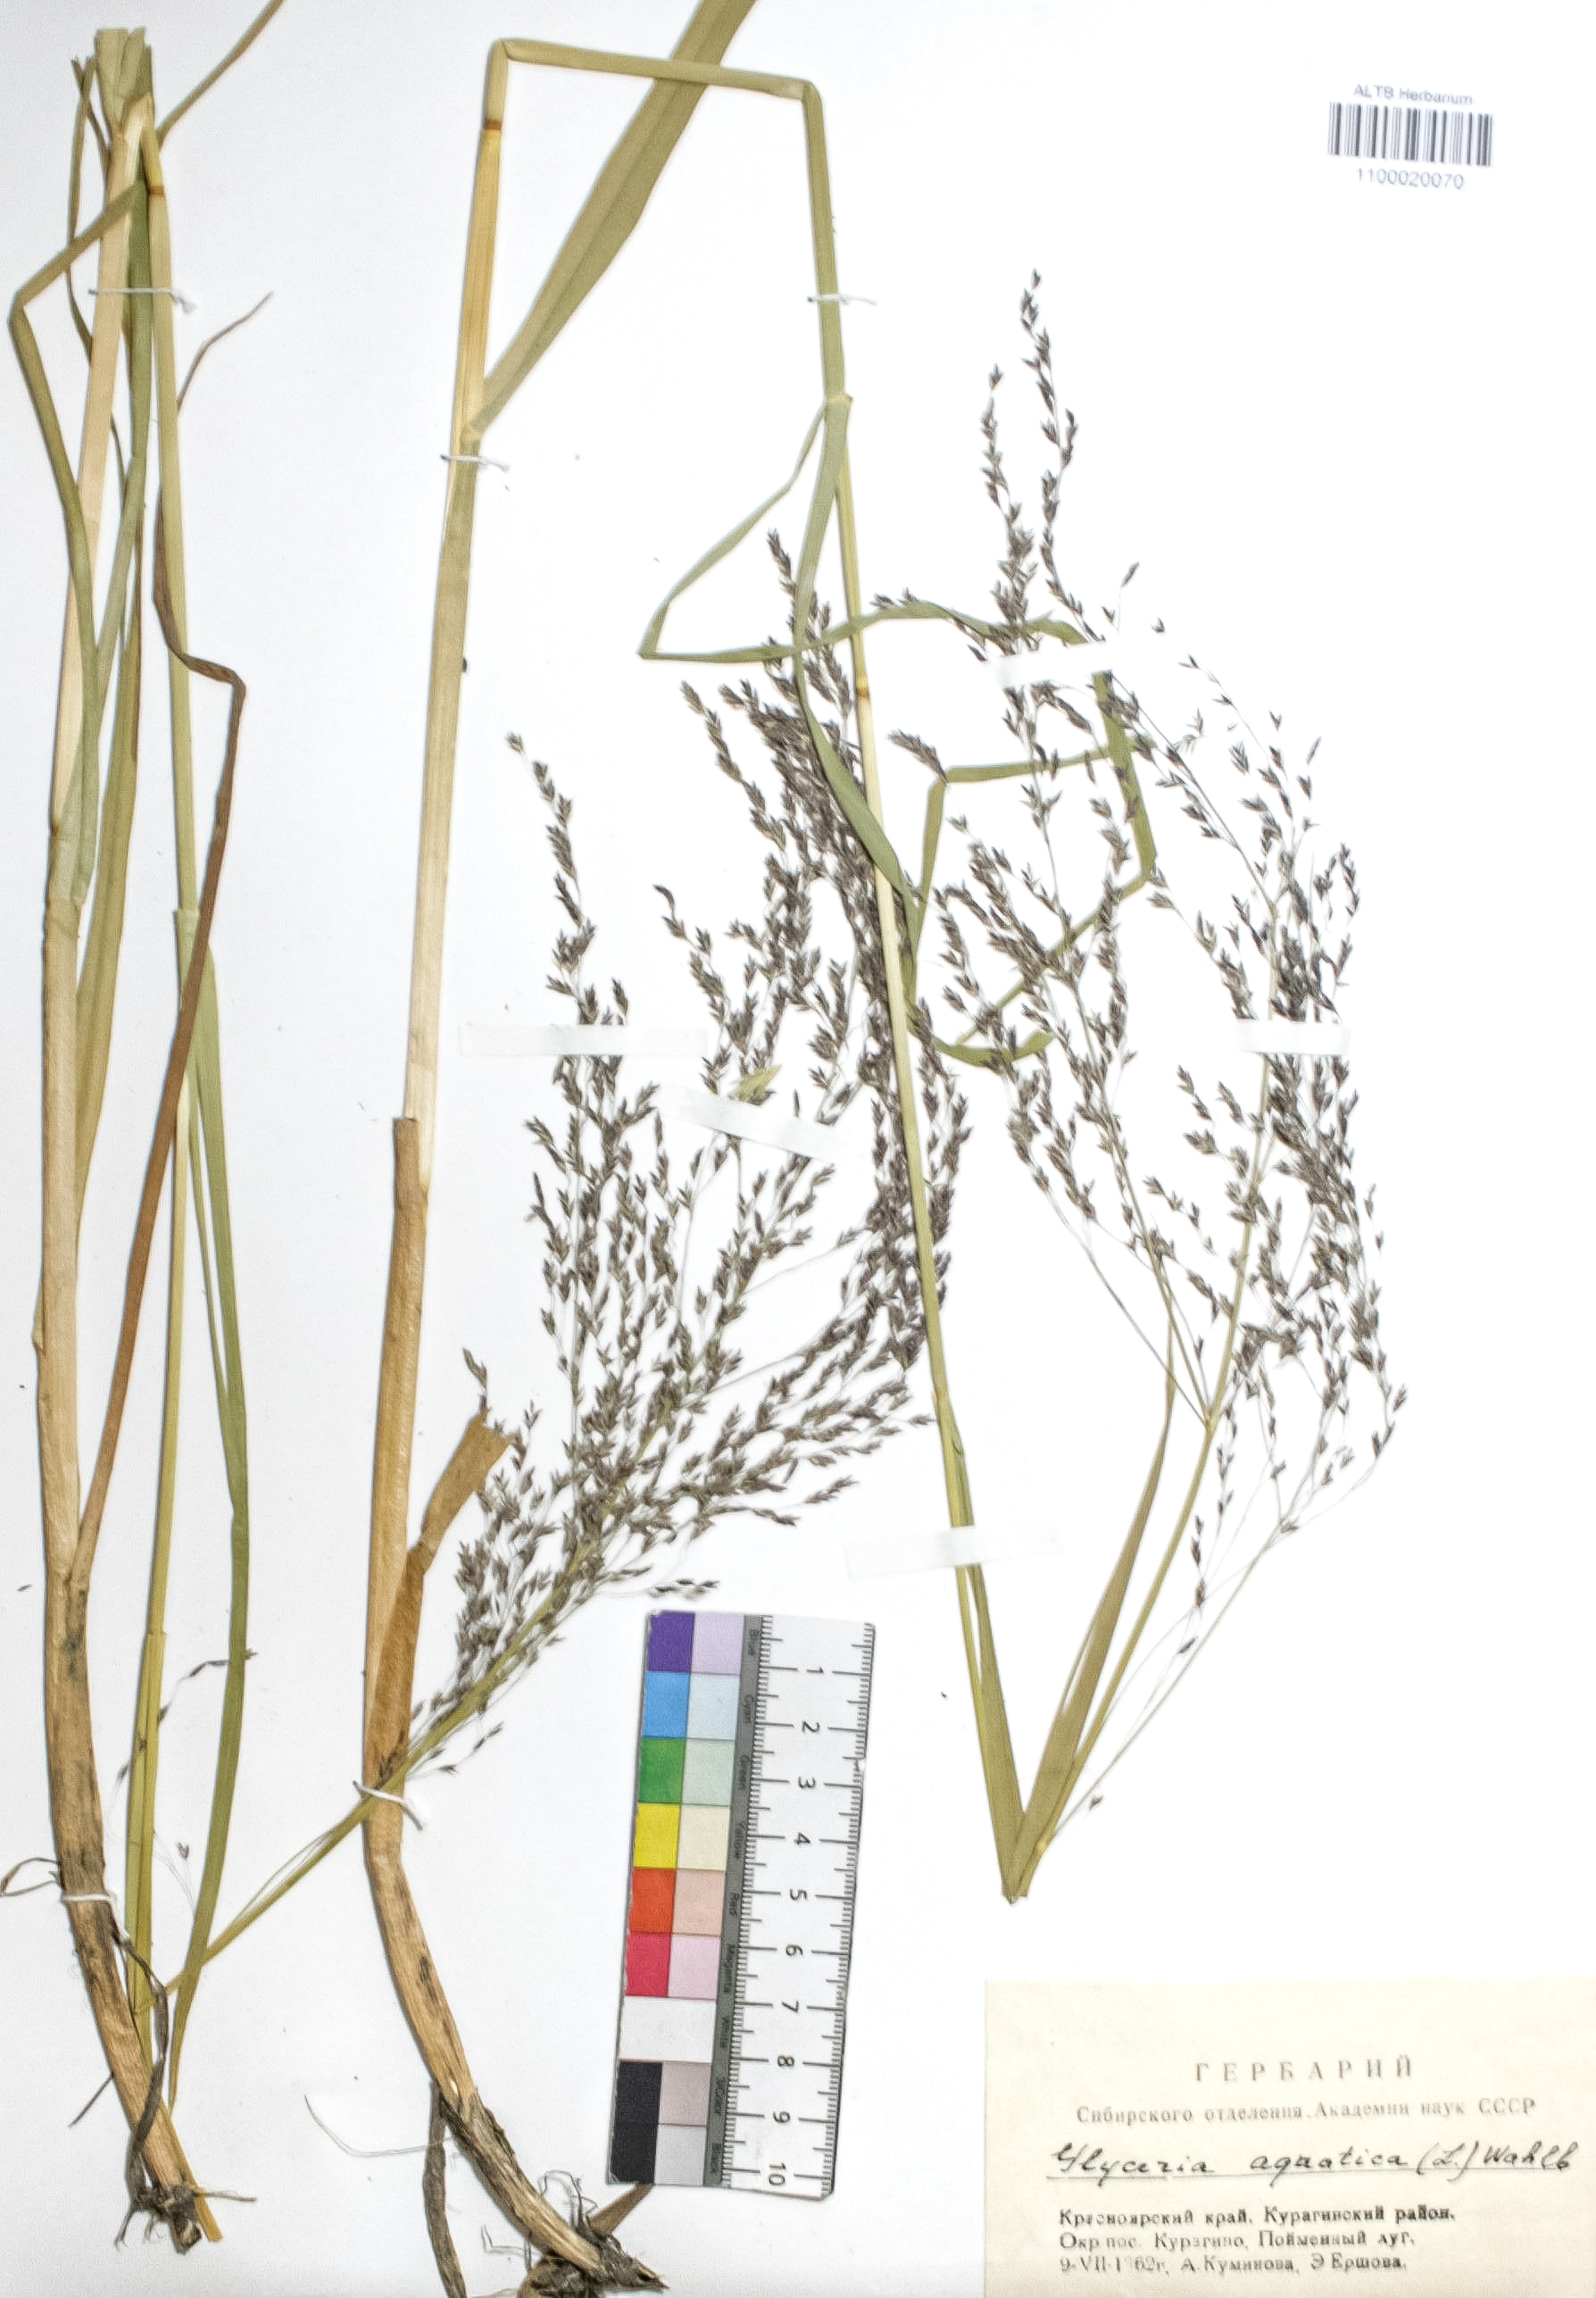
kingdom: Plantae
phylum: Tracheophyta
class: Liliopsida
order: Poales
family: Poaceae
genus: Glyceria
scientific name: Glyceria maxima
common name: Reed mannagrass
